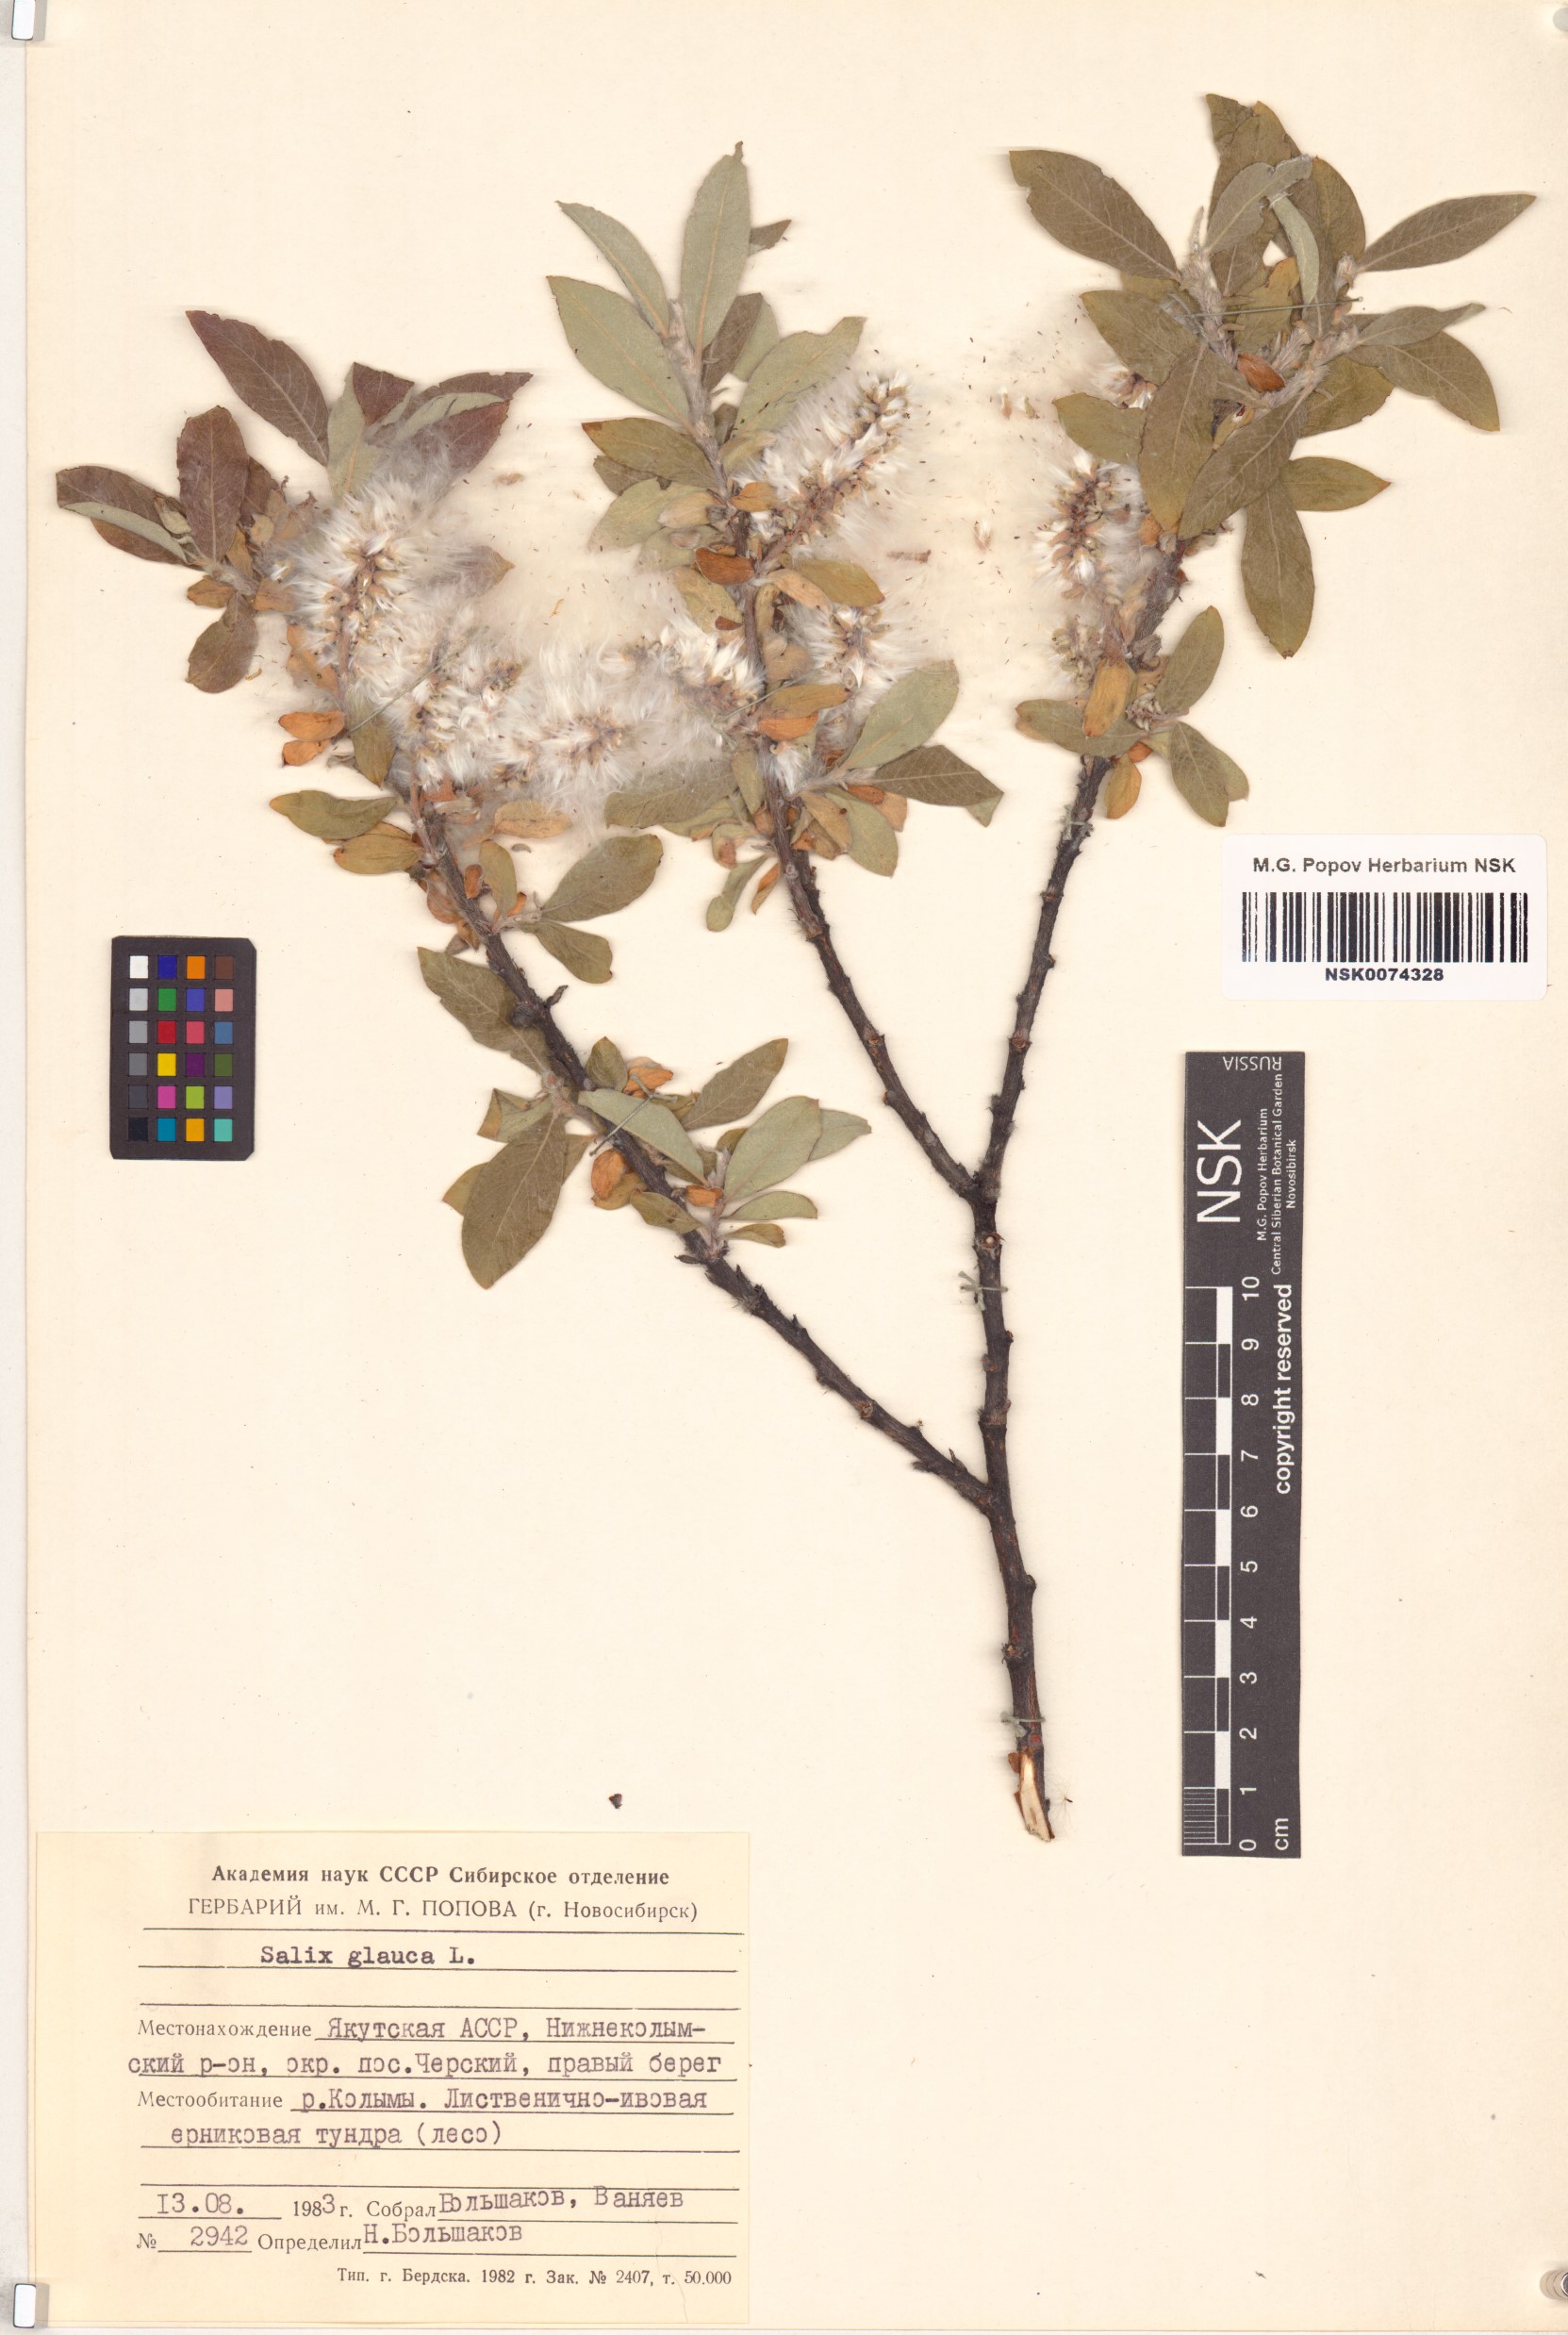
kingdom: Plantae
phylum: Tracheophyta
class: Magnoliopsida
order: Malpighiales
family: Salicaceae
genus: Salix
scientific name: Salix glauca
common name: Glaucous willow
